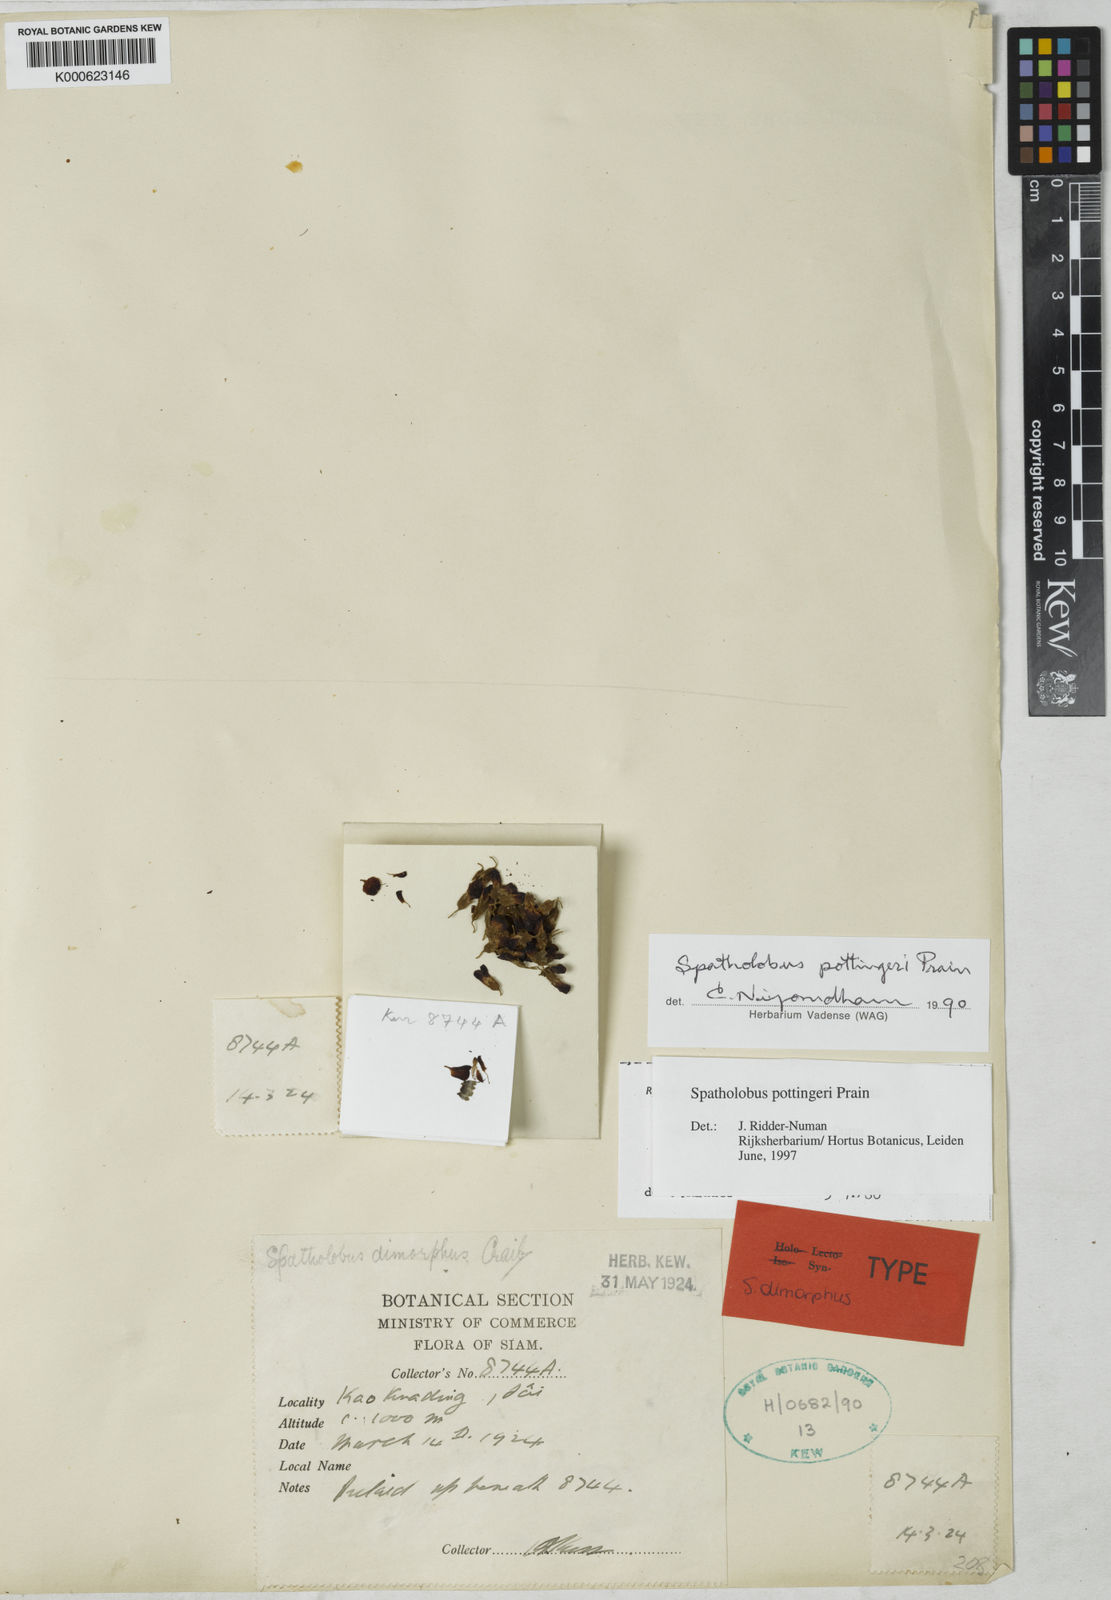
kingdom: Plantae
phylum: Tracheophyta
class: Magnoliopsida
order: Fabales
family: Fabaceae
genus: Spatholobus
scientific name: Spatholobus pottingeri
